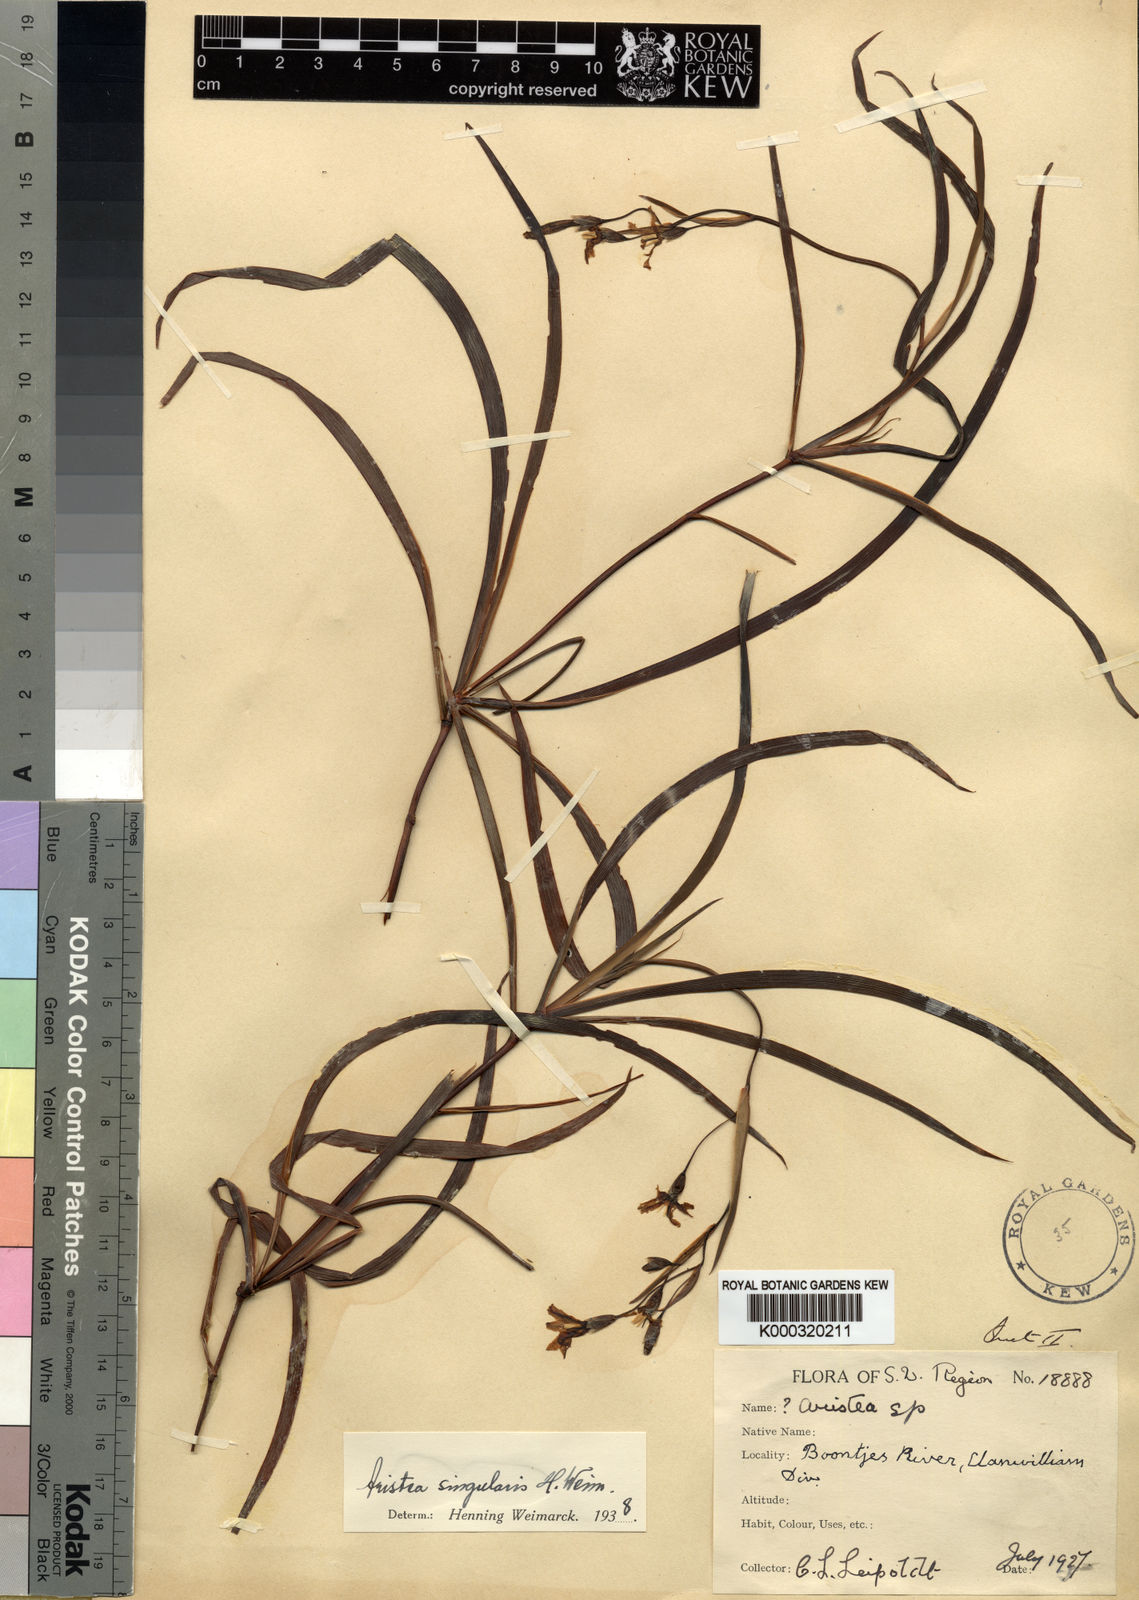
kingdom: Plantae
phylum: Tracheophyta
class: Liliopsida
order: Asparagales
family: Iridaceae
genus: Aristea
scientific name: Aristea singularis
